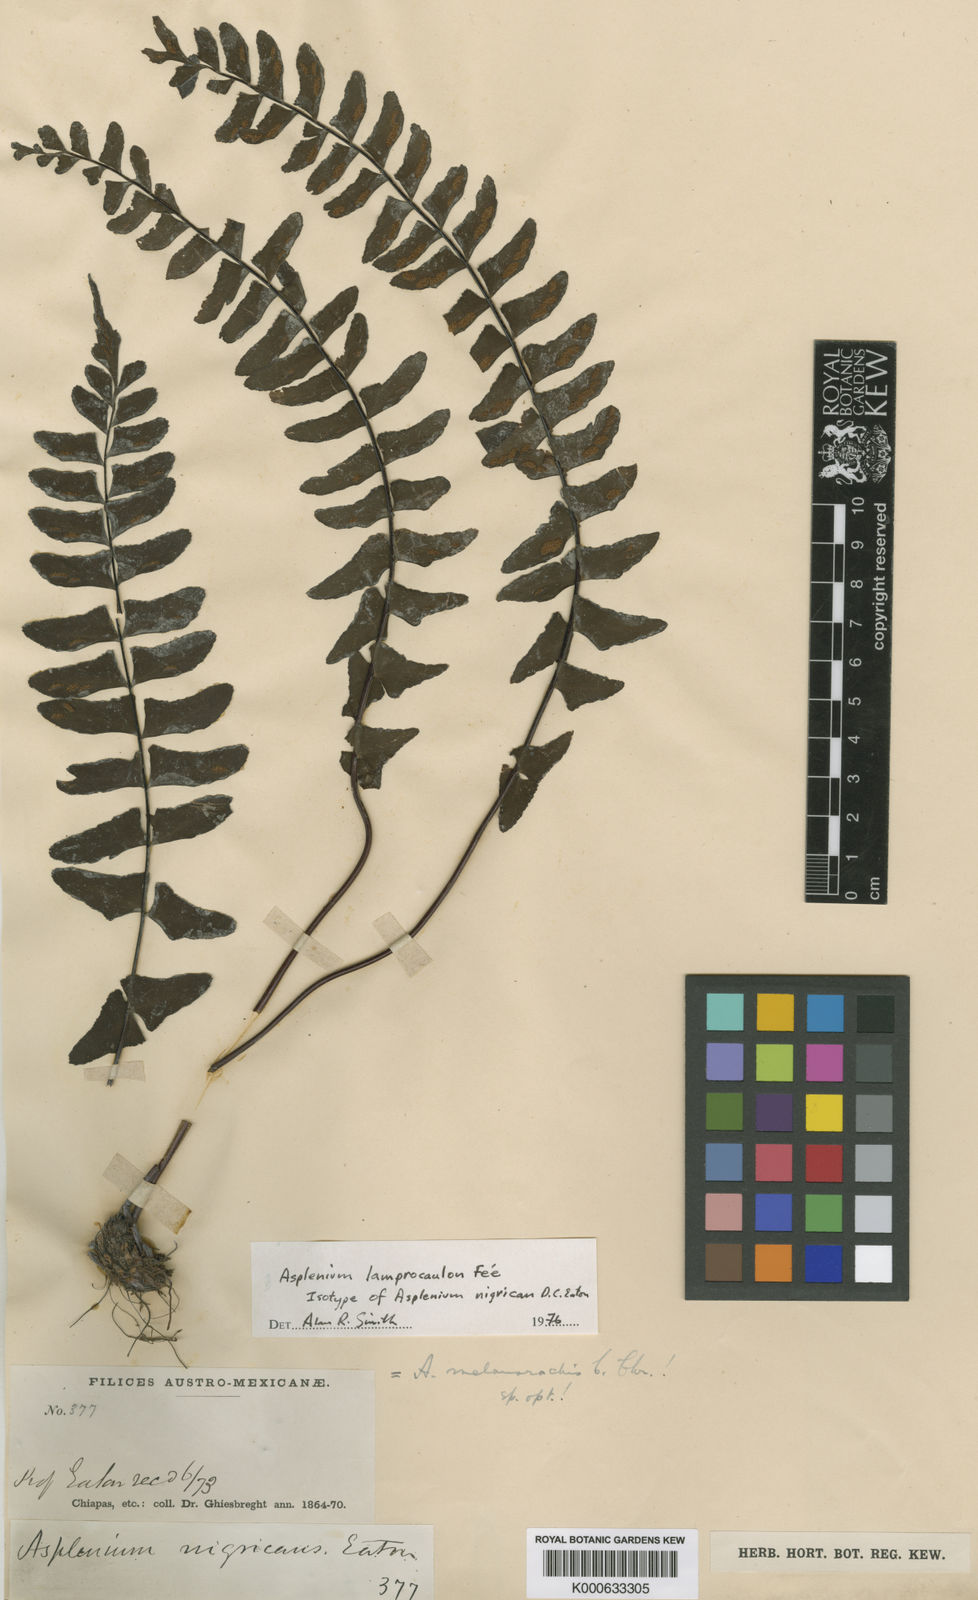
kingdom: Plantae
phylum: Tracheophyta
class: Polypodiopsida
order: Polypodiales
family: Aspleniaceae
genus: Asplenium
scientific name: Asplenium lamprocaulon
